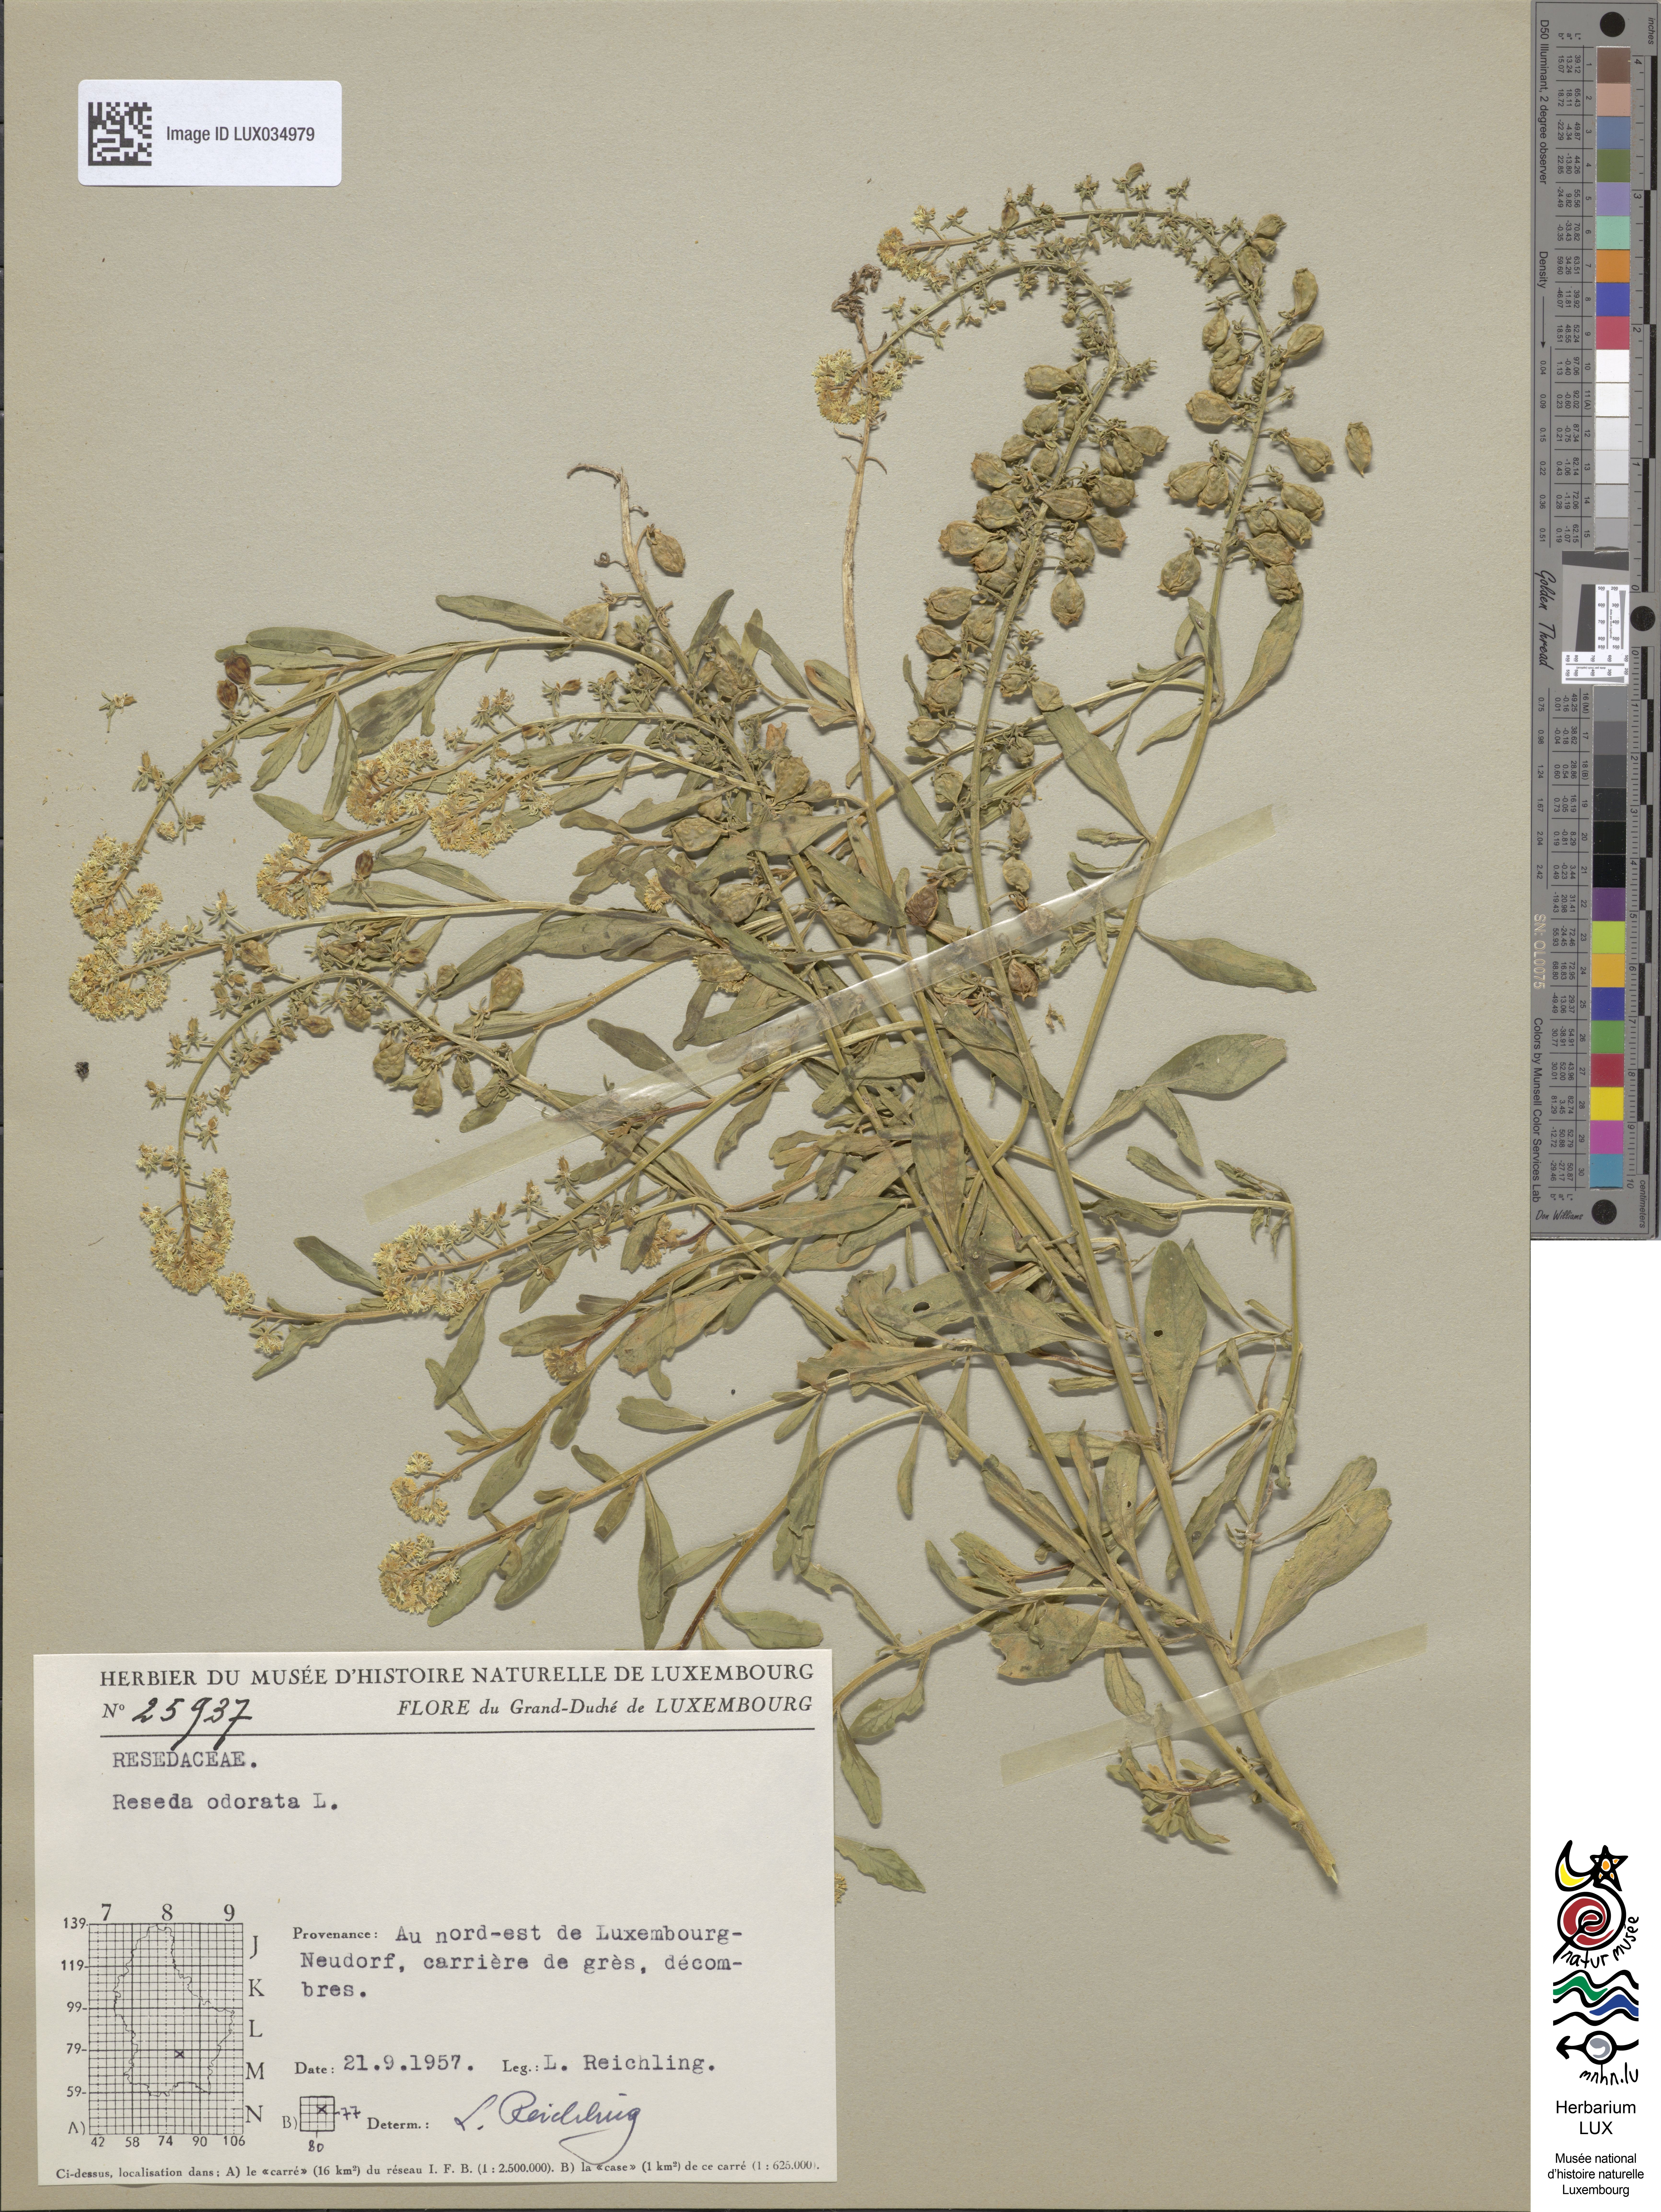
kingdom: Plantae
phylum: Tracheophyta
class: Magnoliopsida
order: Brassicales
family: Resedaceae
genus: Reseda
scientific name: Reseda odorata
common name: Garden mignonette
